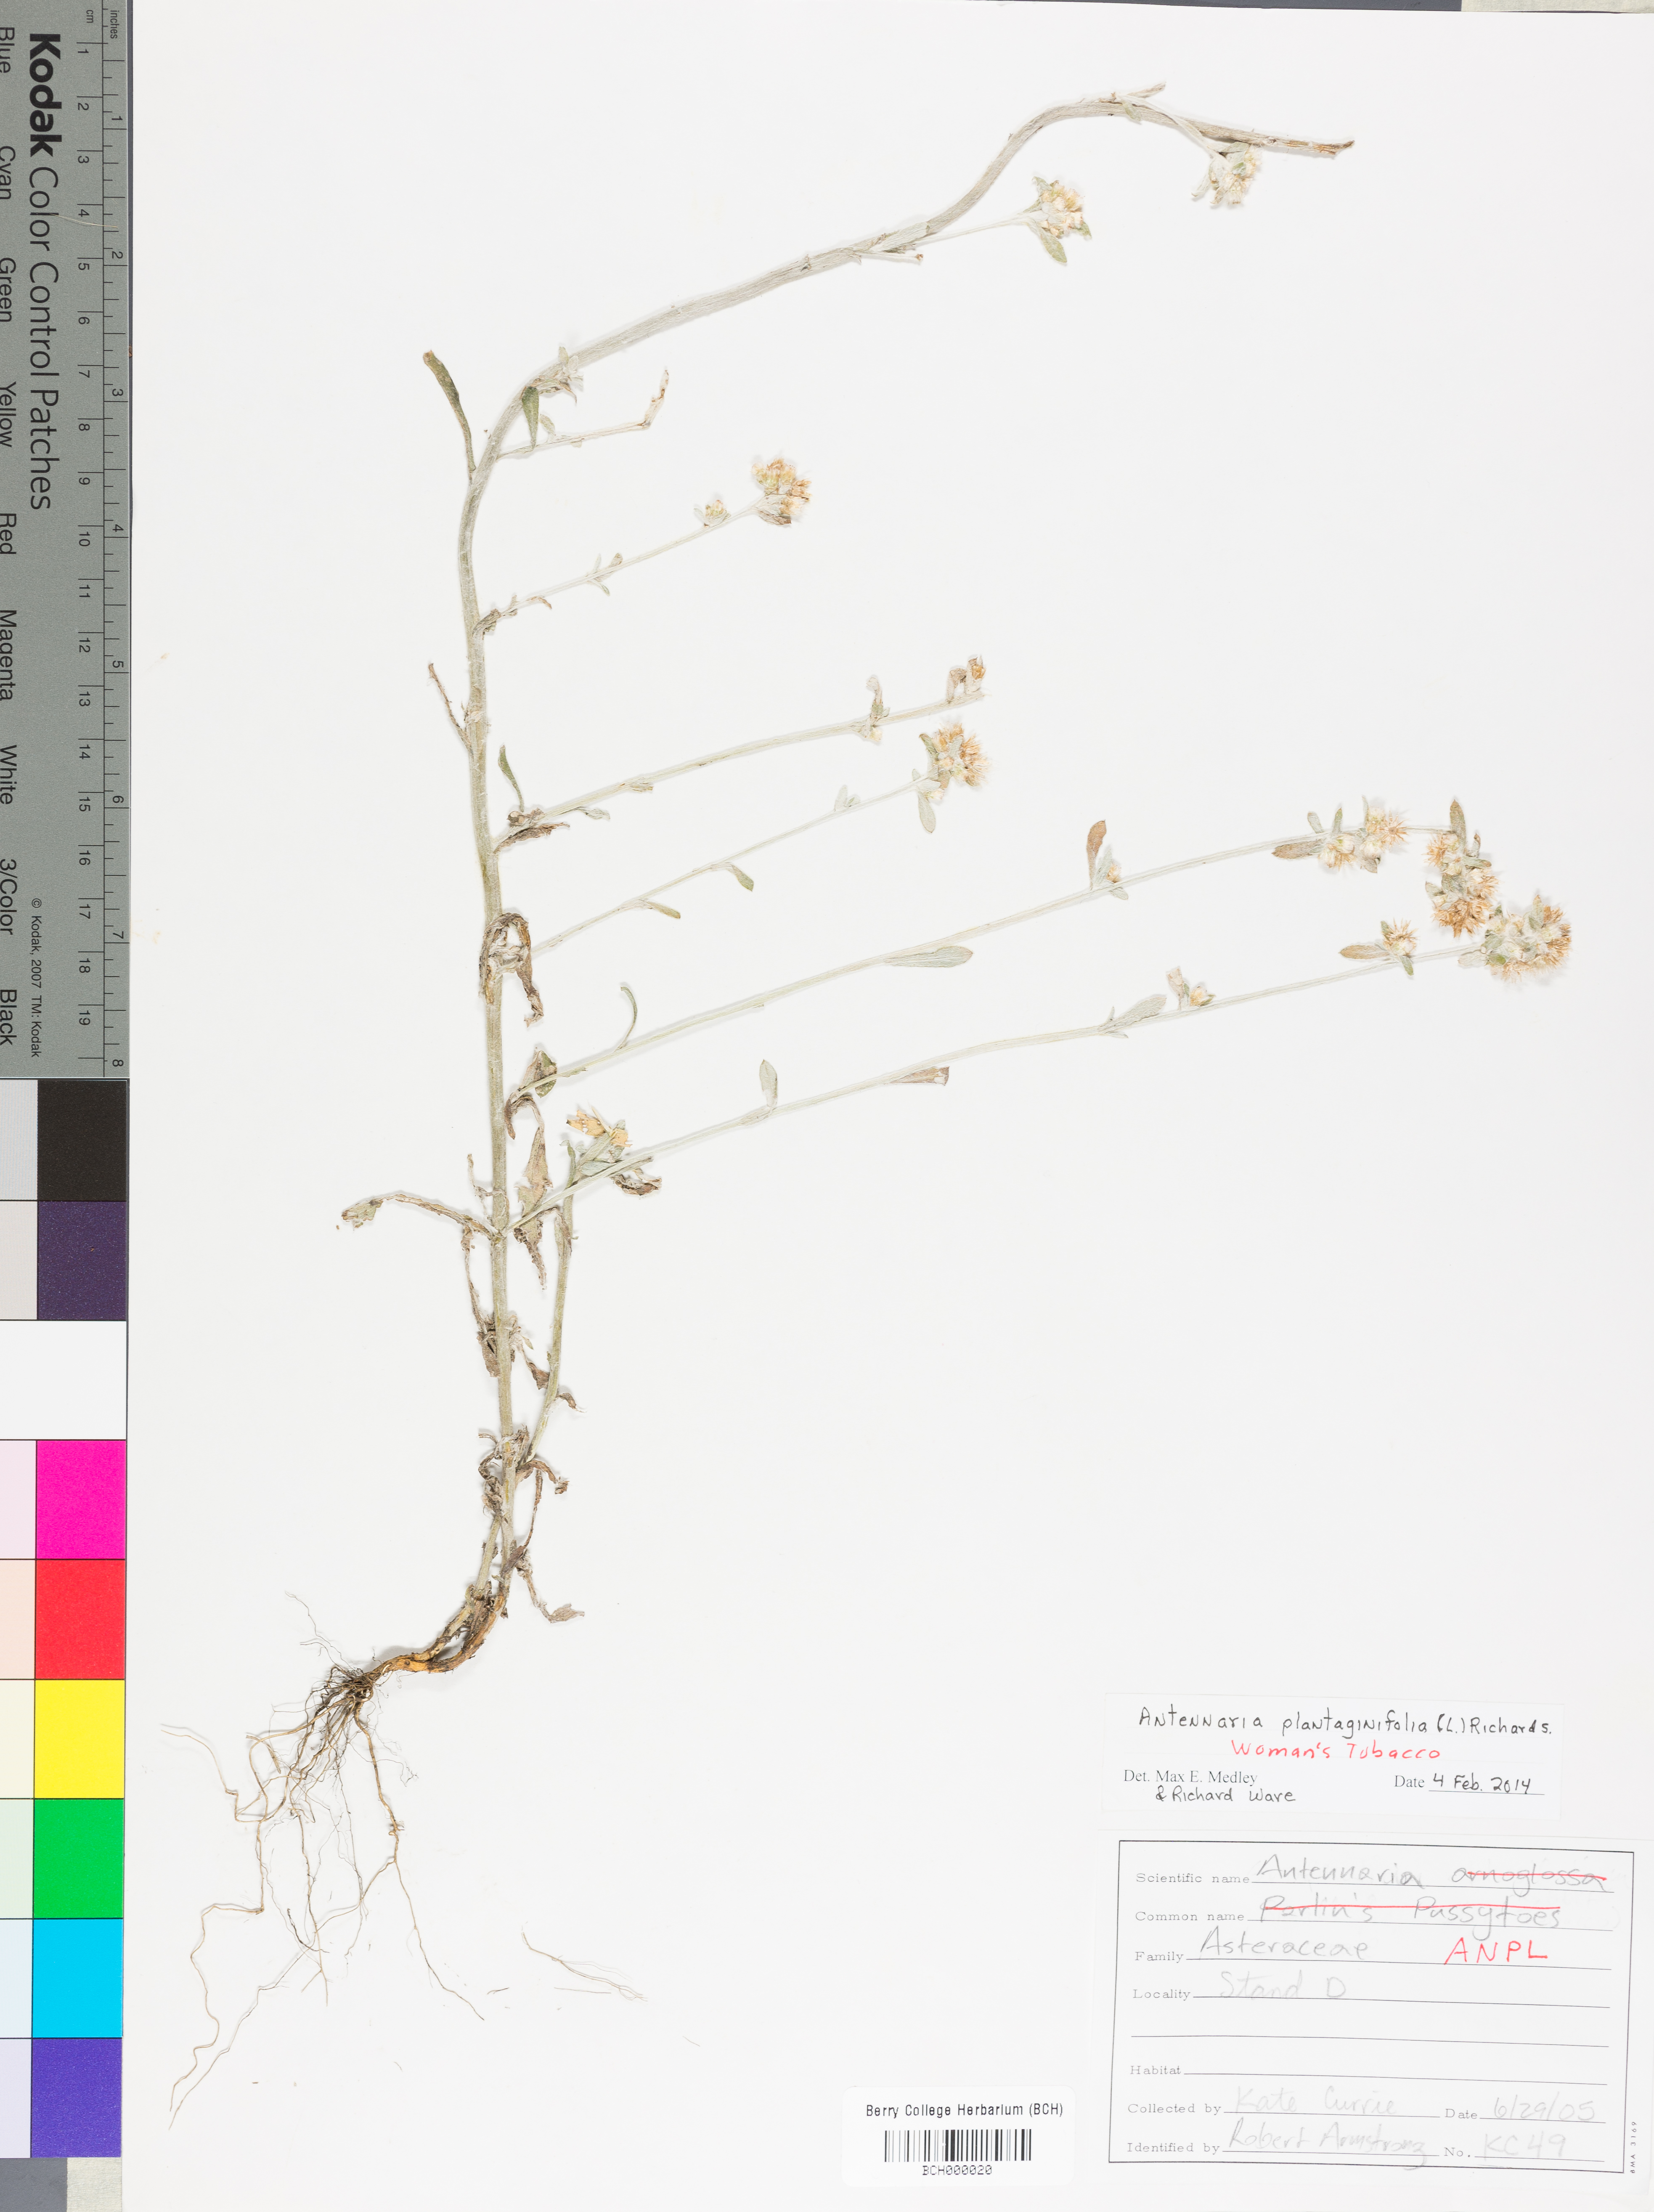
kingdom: Plantae
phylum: Tracheophyta
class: Magnoliopsida
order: Asterales
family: Asteraceae
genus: Antennaria
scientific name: Antennaria plantaginifolia
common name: Plantain-leaved pussytoes
